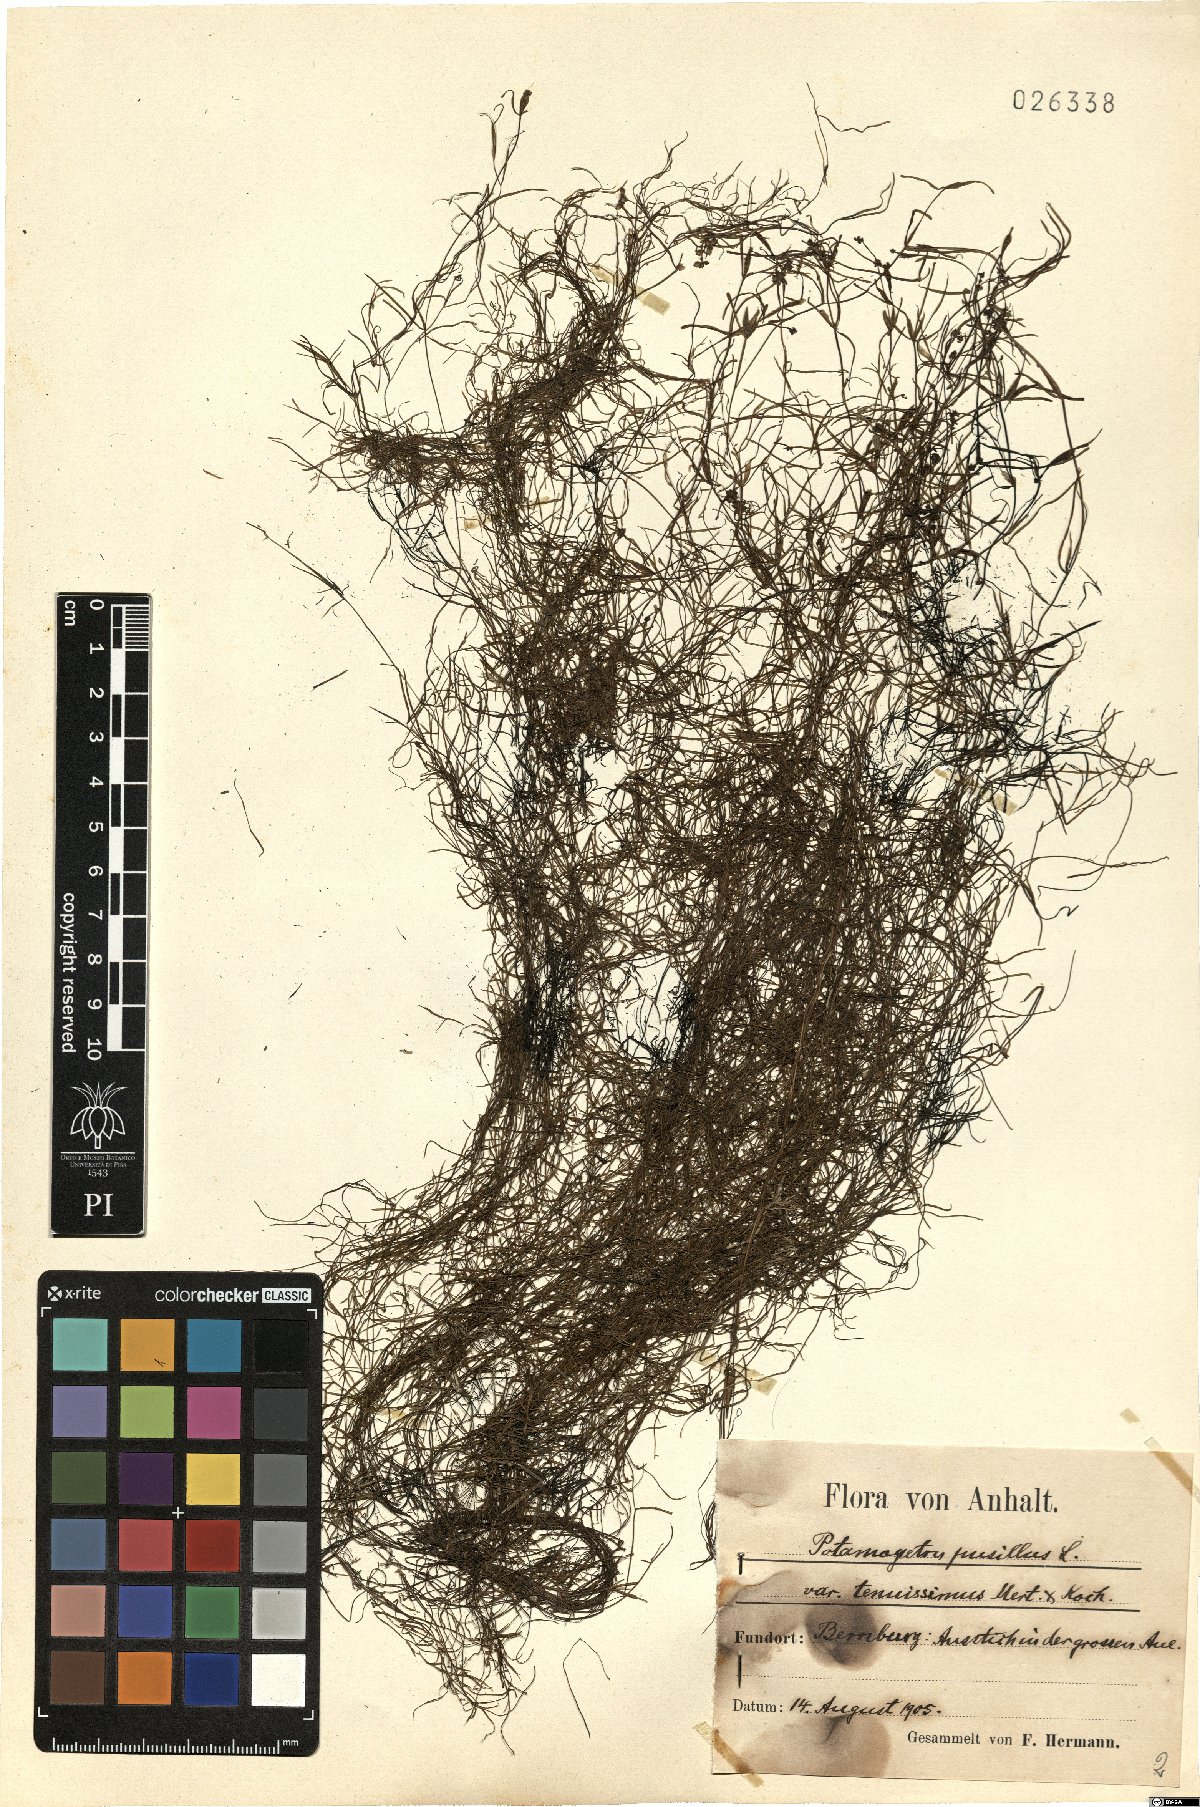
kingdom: Plantae
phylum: Tracheophyta
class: Liliopsida
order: Alismatales
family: Potamogetonaceae
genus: Potamogeton
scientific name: Potamogeton berchtoldii
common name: Small pondweed
